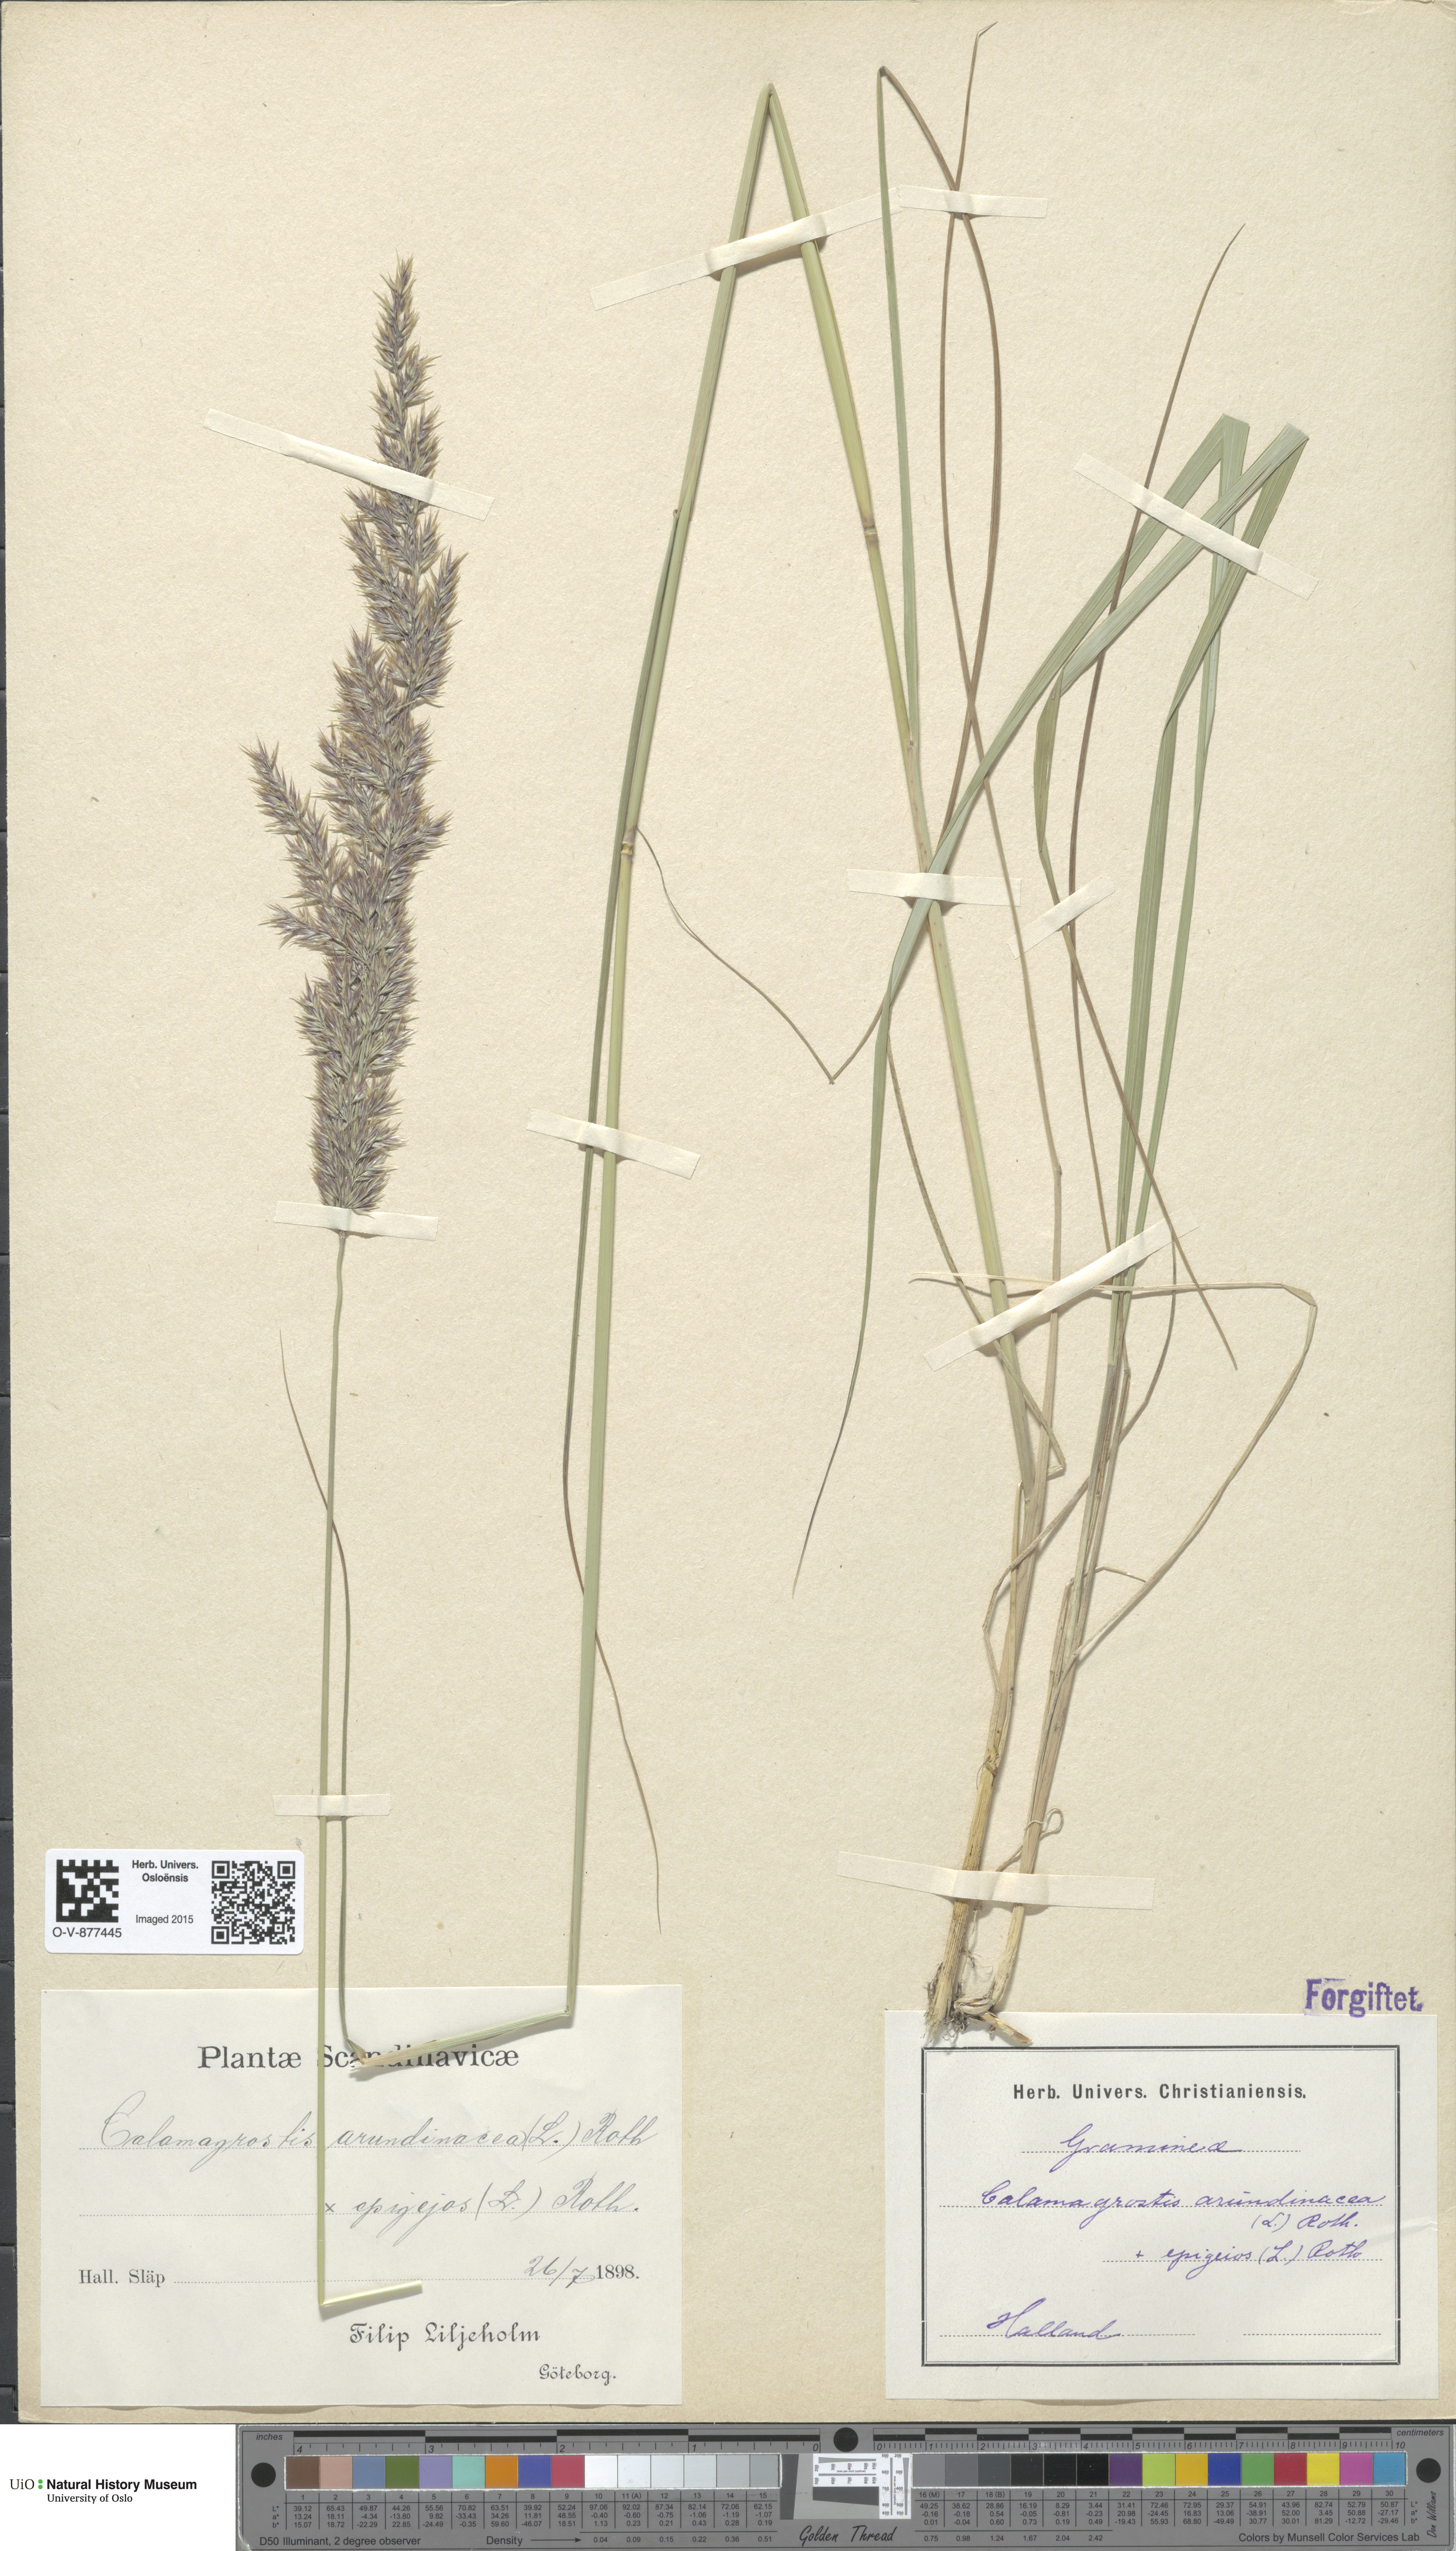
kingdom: Plantae
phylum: Tracheophyta
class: Liliopsida
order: Poales
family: Poaceae
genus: Calamagrostis
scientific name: Calamagrostis
